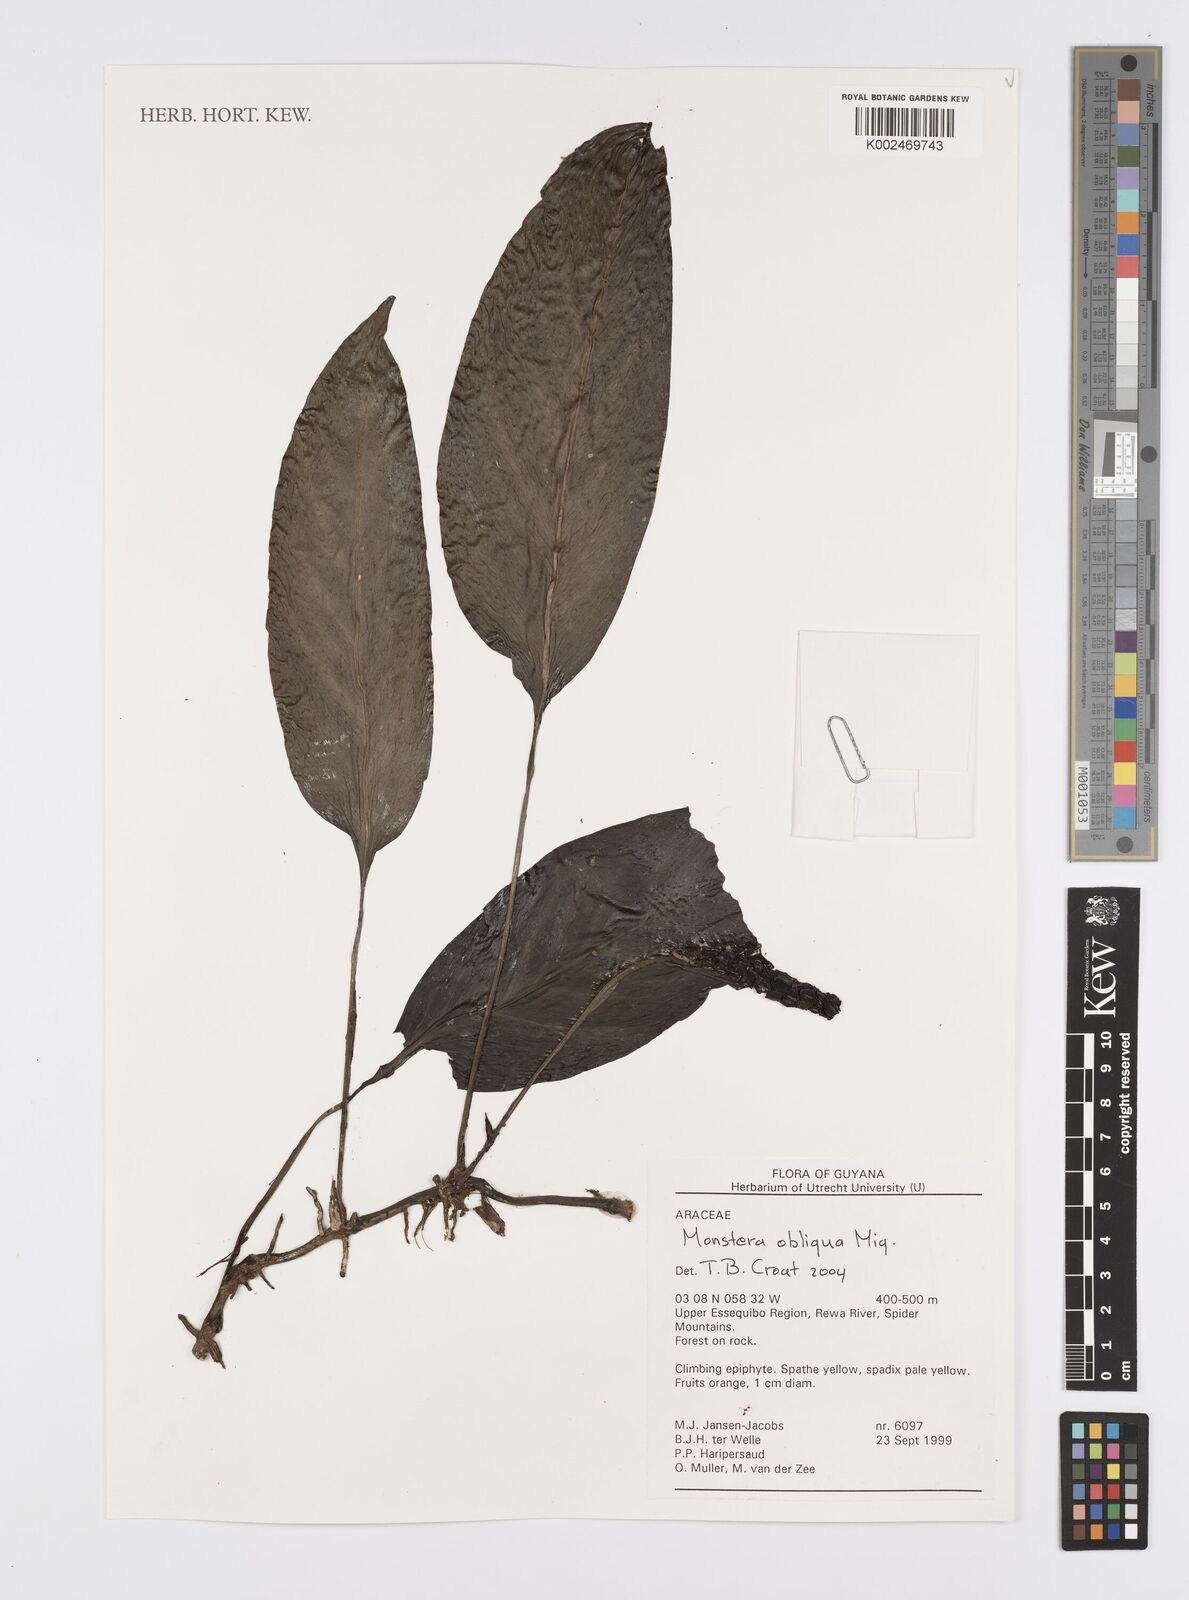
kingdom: Plantae
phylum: Tracheophyta
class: Liliopsida
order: Alismatales
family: Araceae
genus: Monstera
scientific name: Monstera obliqua
